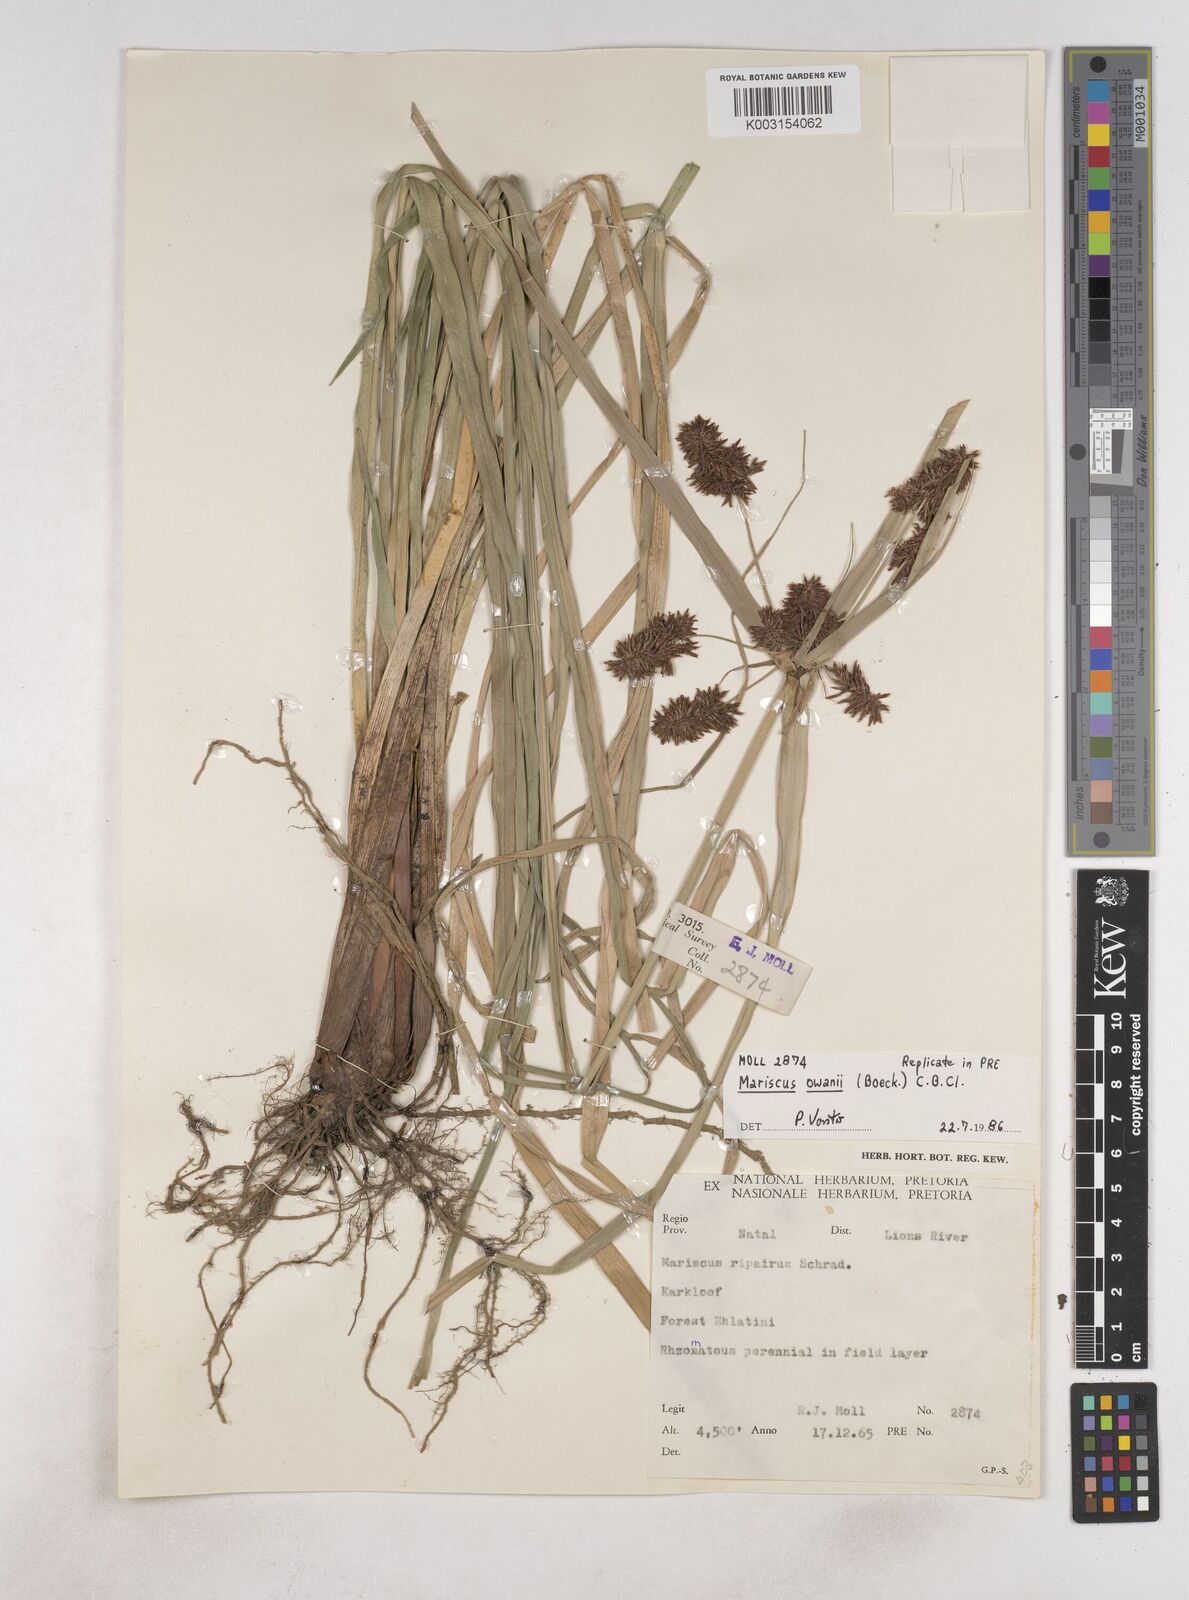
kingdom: Plantae
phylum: Tracheophyta
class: Liliopsida
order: Poales
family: Cyperaceae
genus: Cyperus
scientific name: Cyperus owanii
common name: Owan's flatsedge
